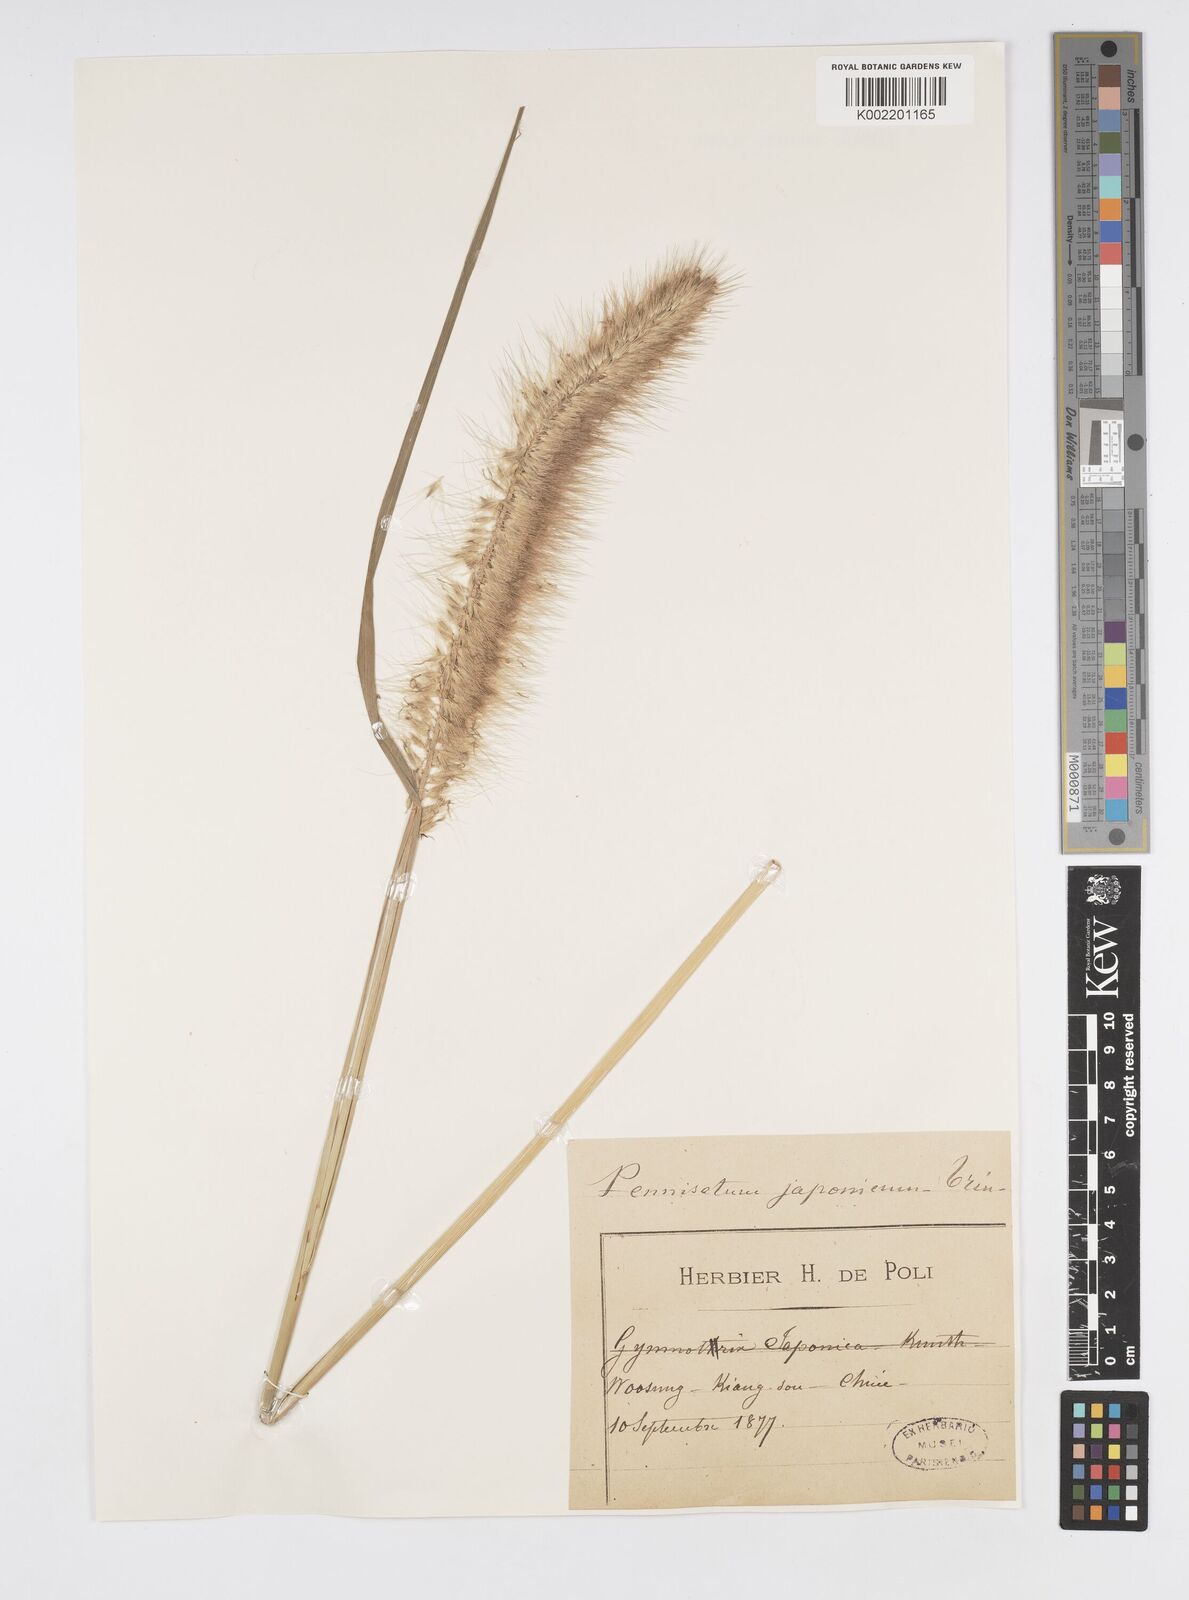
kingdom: Plantae
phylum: Tracheophyta
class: Liliopsida
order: Poales
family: Poaceae
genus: Cenchrus
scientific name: Cenchrus alopecuroides
